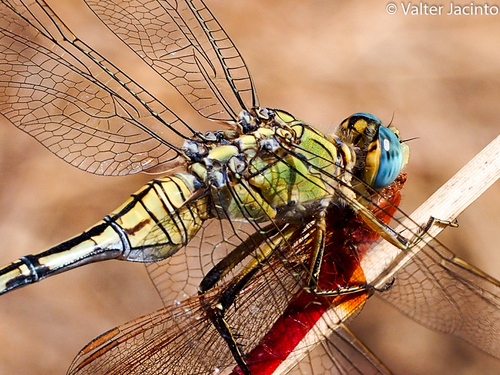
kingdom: Animalia
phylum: Arthropoda
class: Insecta
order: Odonata
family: Libellulidae
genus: Orthetrum
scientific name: Orthetrum trinacria
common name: Long skimmer
